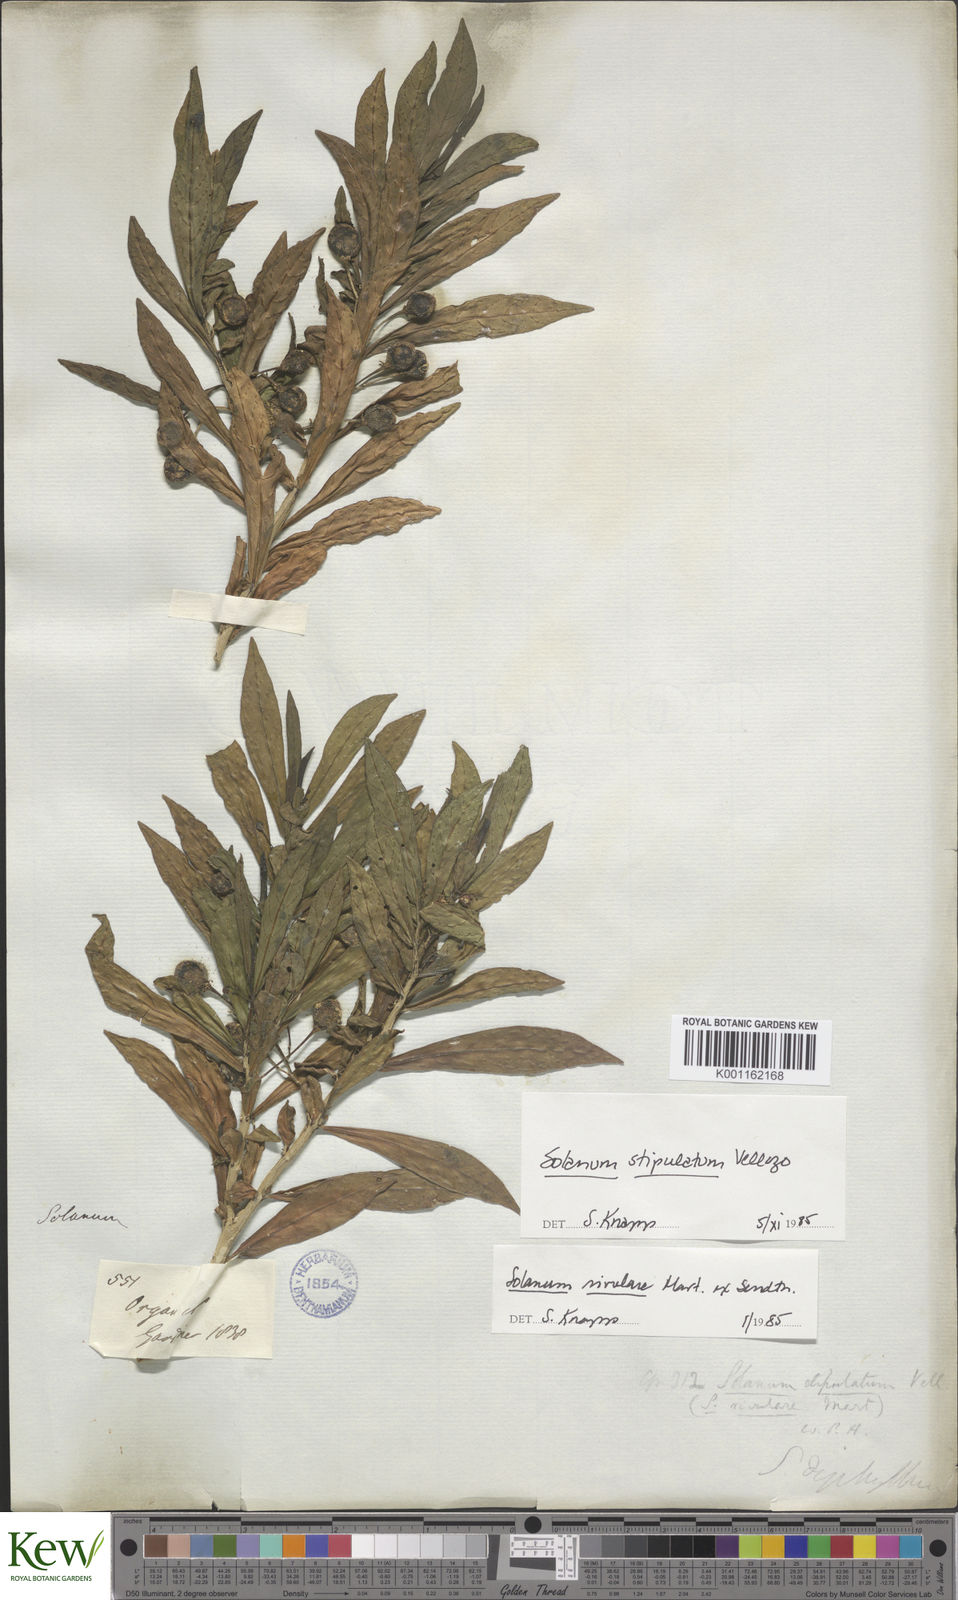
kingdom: Plantae
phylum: Tracheophyta
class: Magnoliopsida
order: Solanales
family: Solanaceae
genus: Solanum
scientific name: Solanum stipulatum
